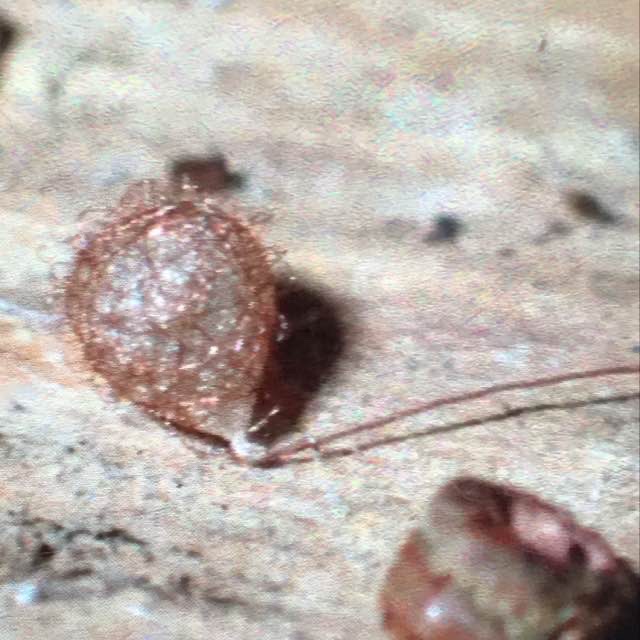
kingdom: Animalia
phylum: Arthropoda
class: Arachnida
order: Araneae
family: Mimetidae
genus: Ero
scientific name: Ero
